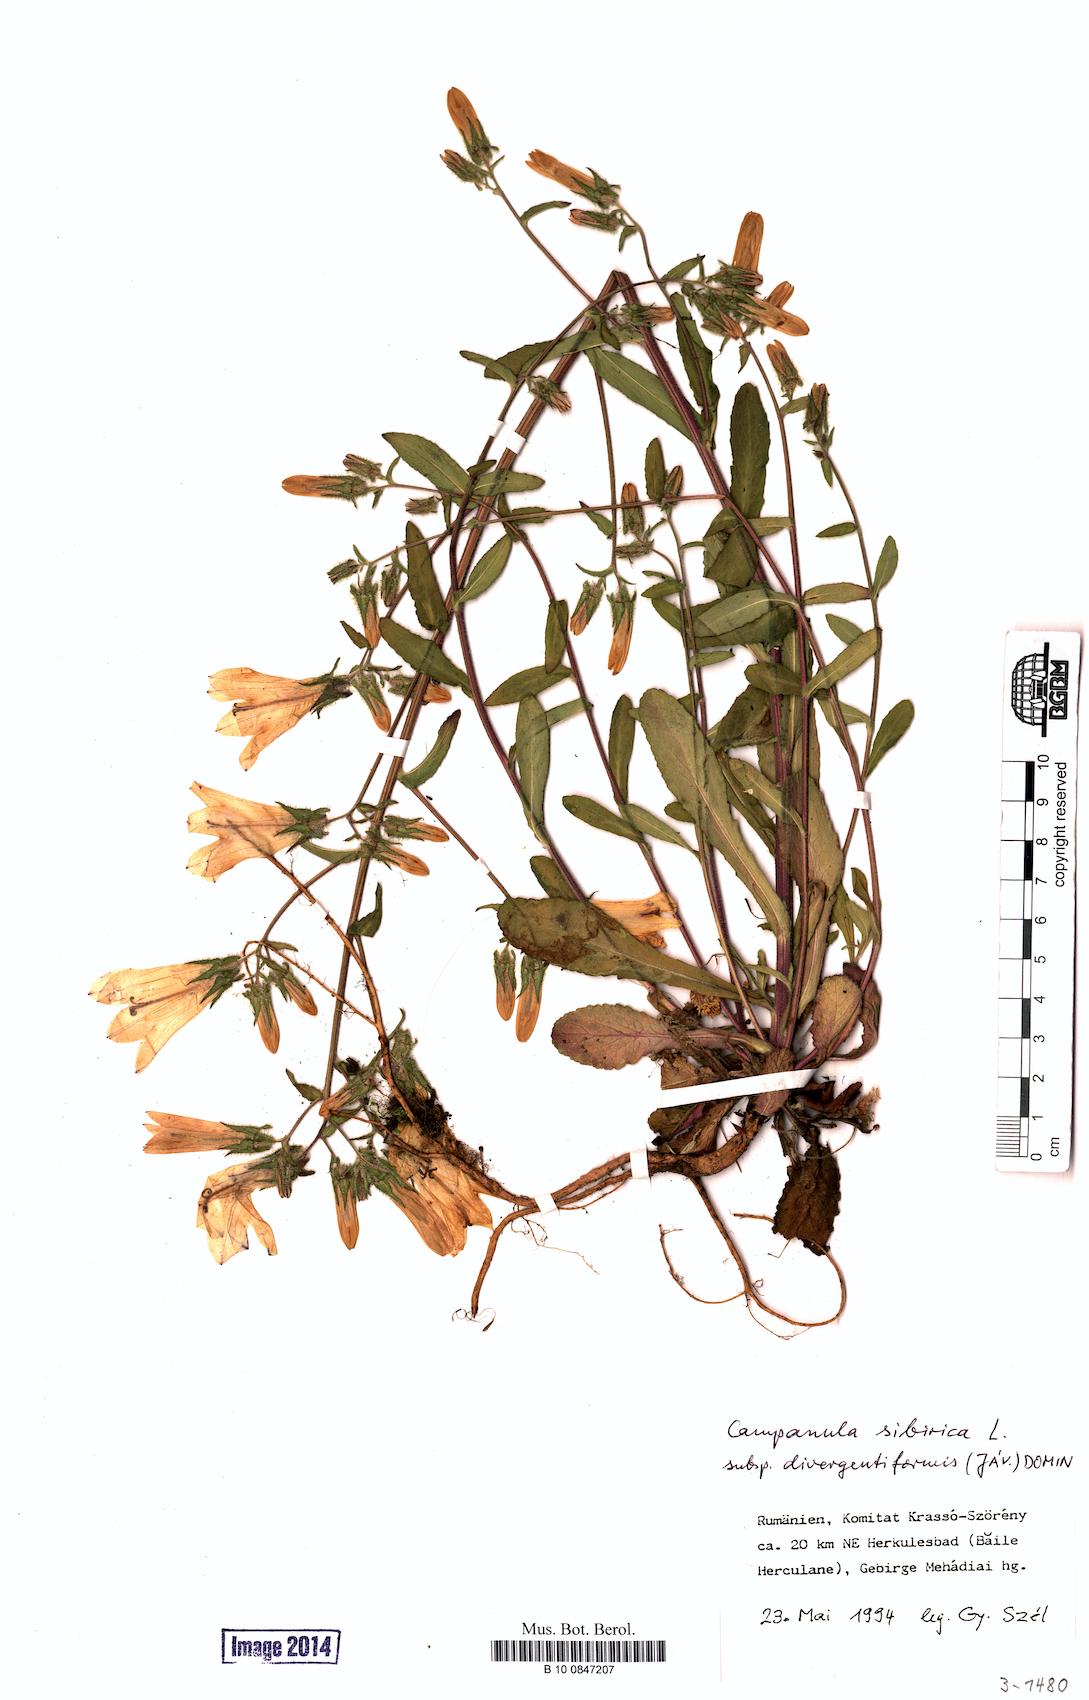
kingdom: Plantae
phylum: Tracheophyta
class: Magnoliopsida
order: Asterales
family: Campanulaceae
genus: Campanula
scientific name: Campanula sibirica
